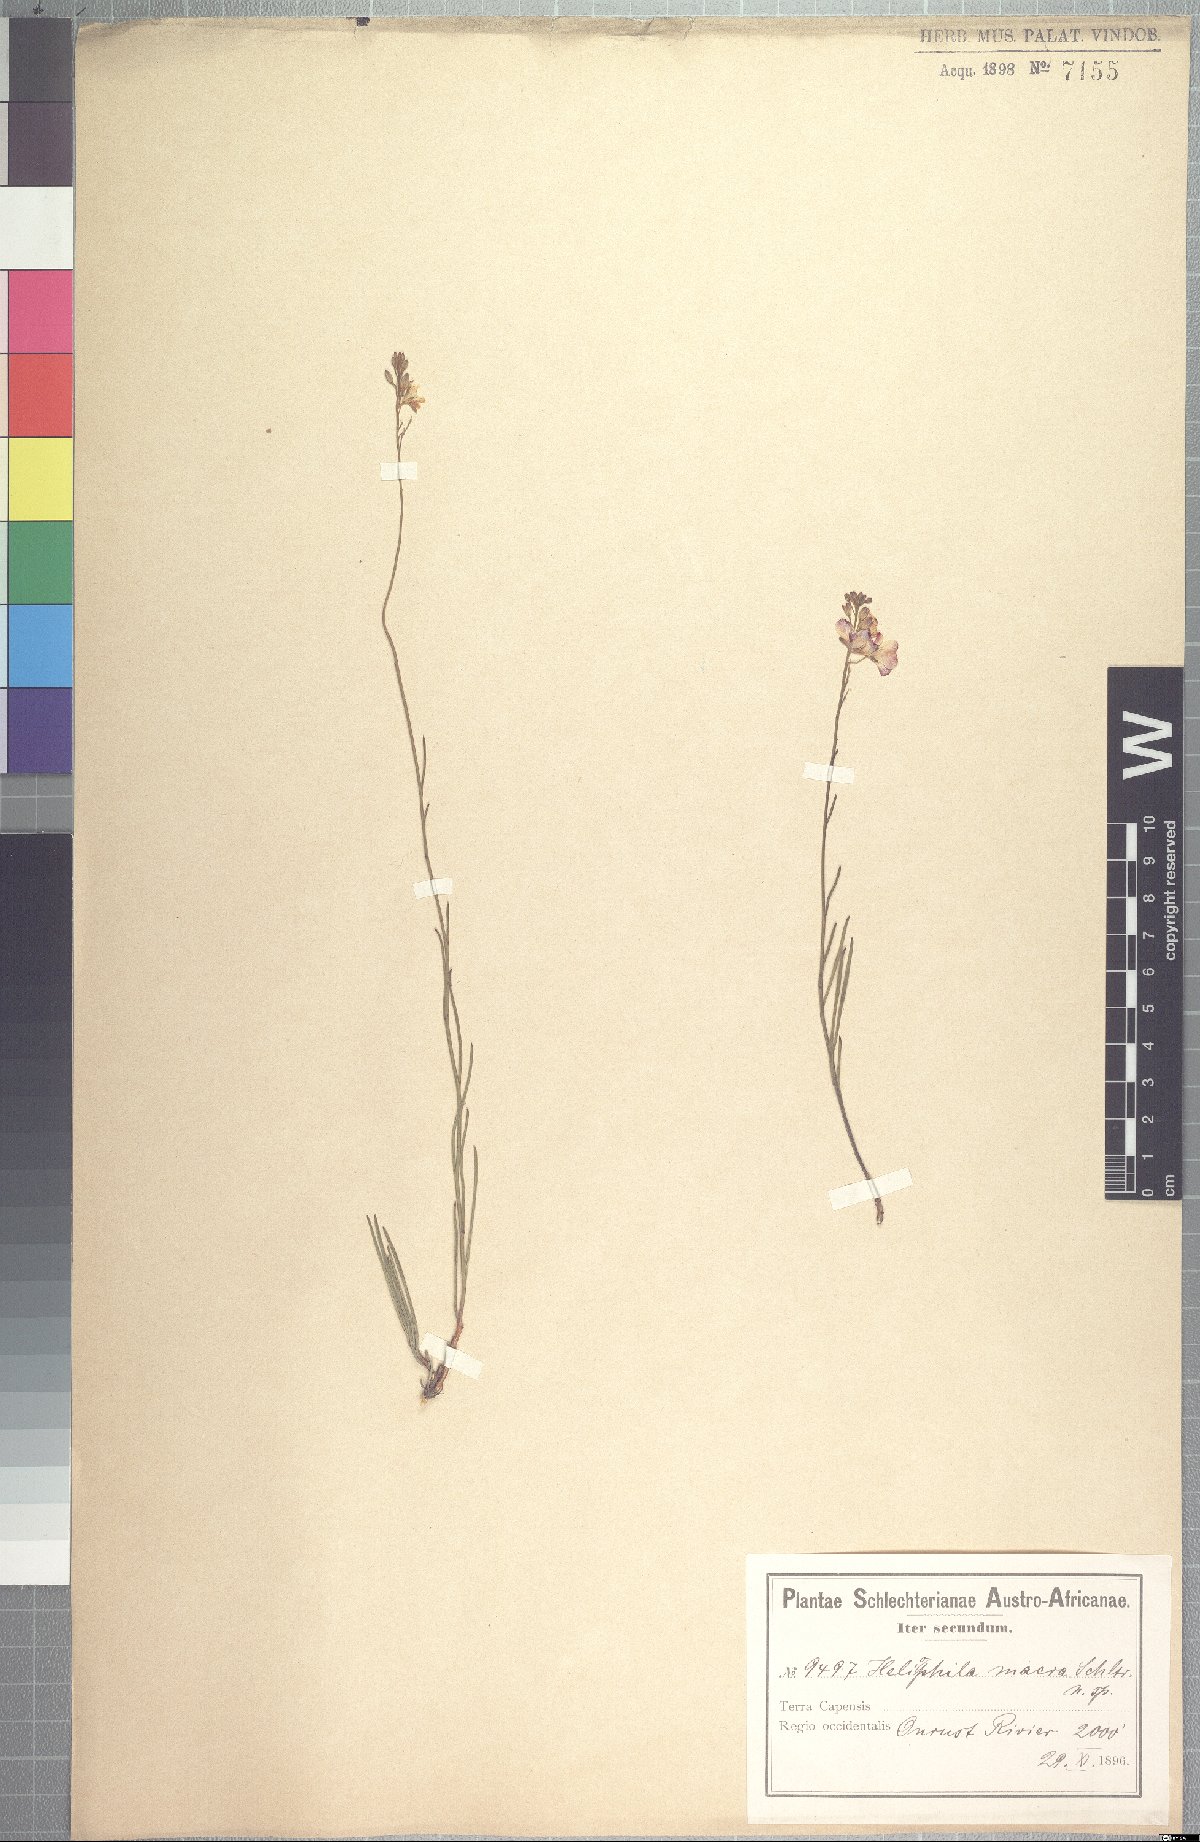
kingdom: Plantae
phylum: Tracheophyta
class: Magnoliopsida
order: Brassicales
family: Brassicaceae
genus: Heliophila
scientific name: Heliophila macra
